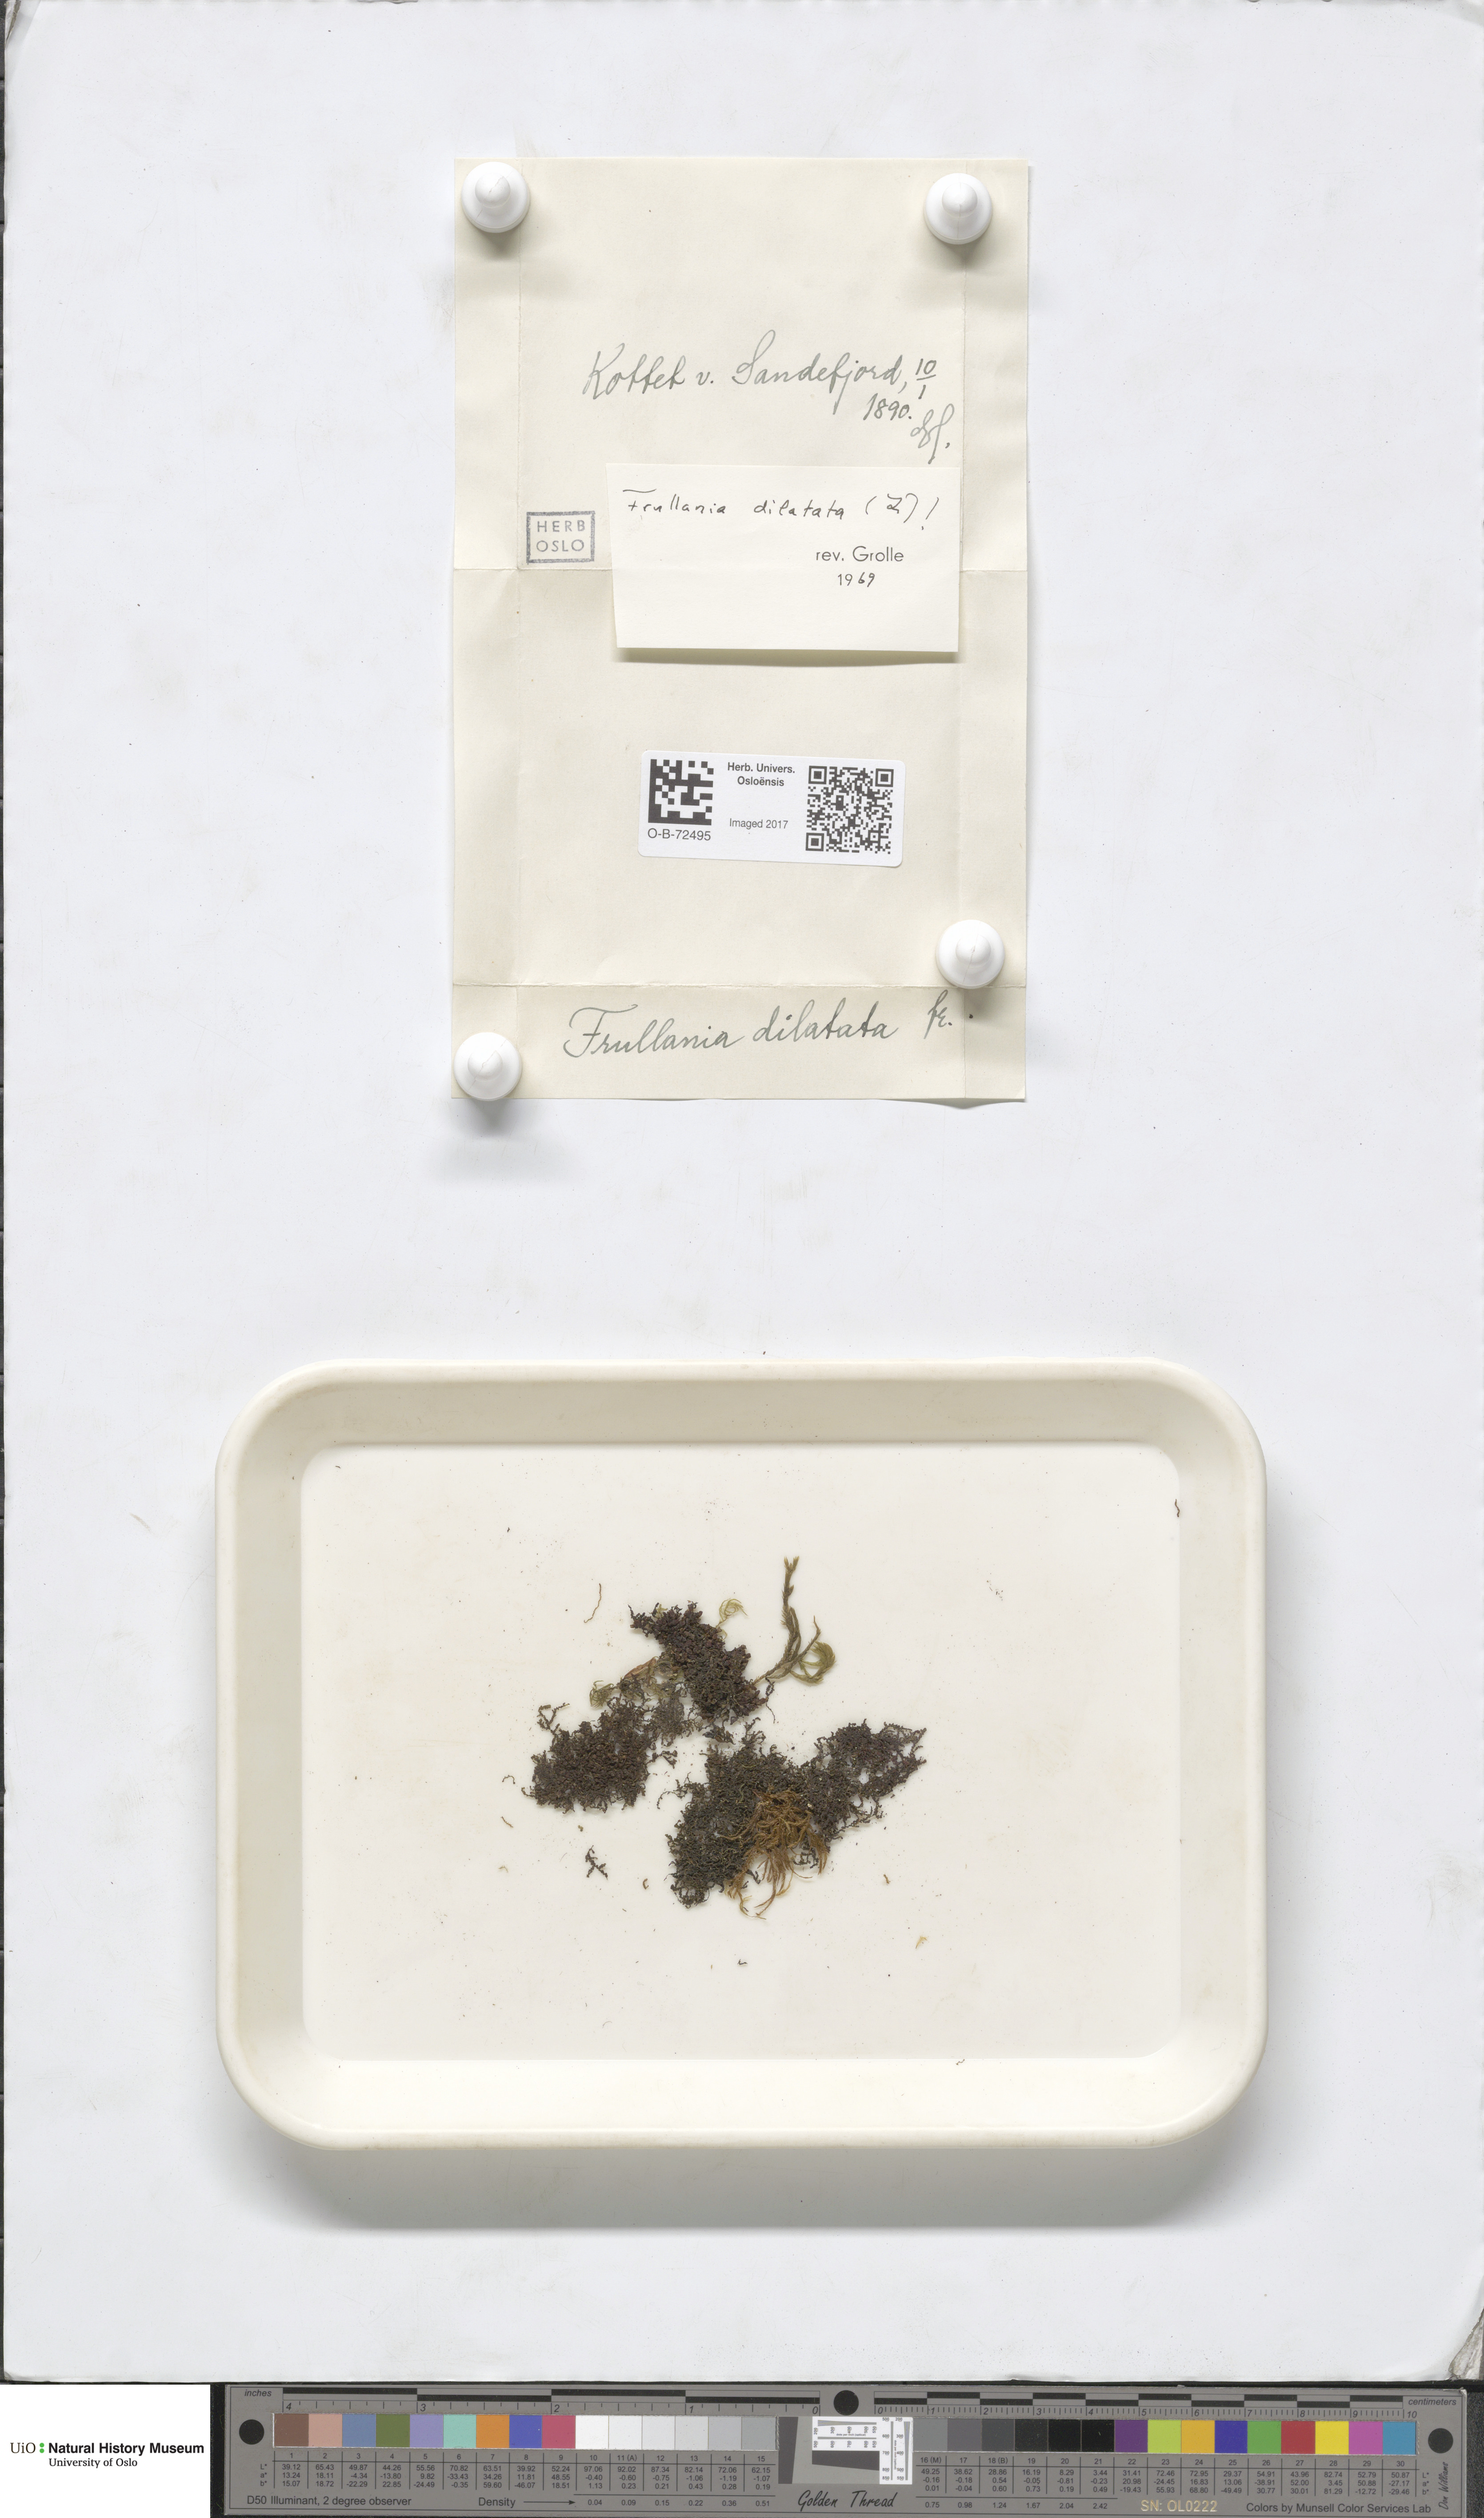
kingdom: Plantae
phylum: Marchantiophyta
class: Jungermanniopsida
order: Porellales
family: Frullaniaceae
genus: Frullania
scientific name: Frullania dilatata
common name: Dilated scalewort
